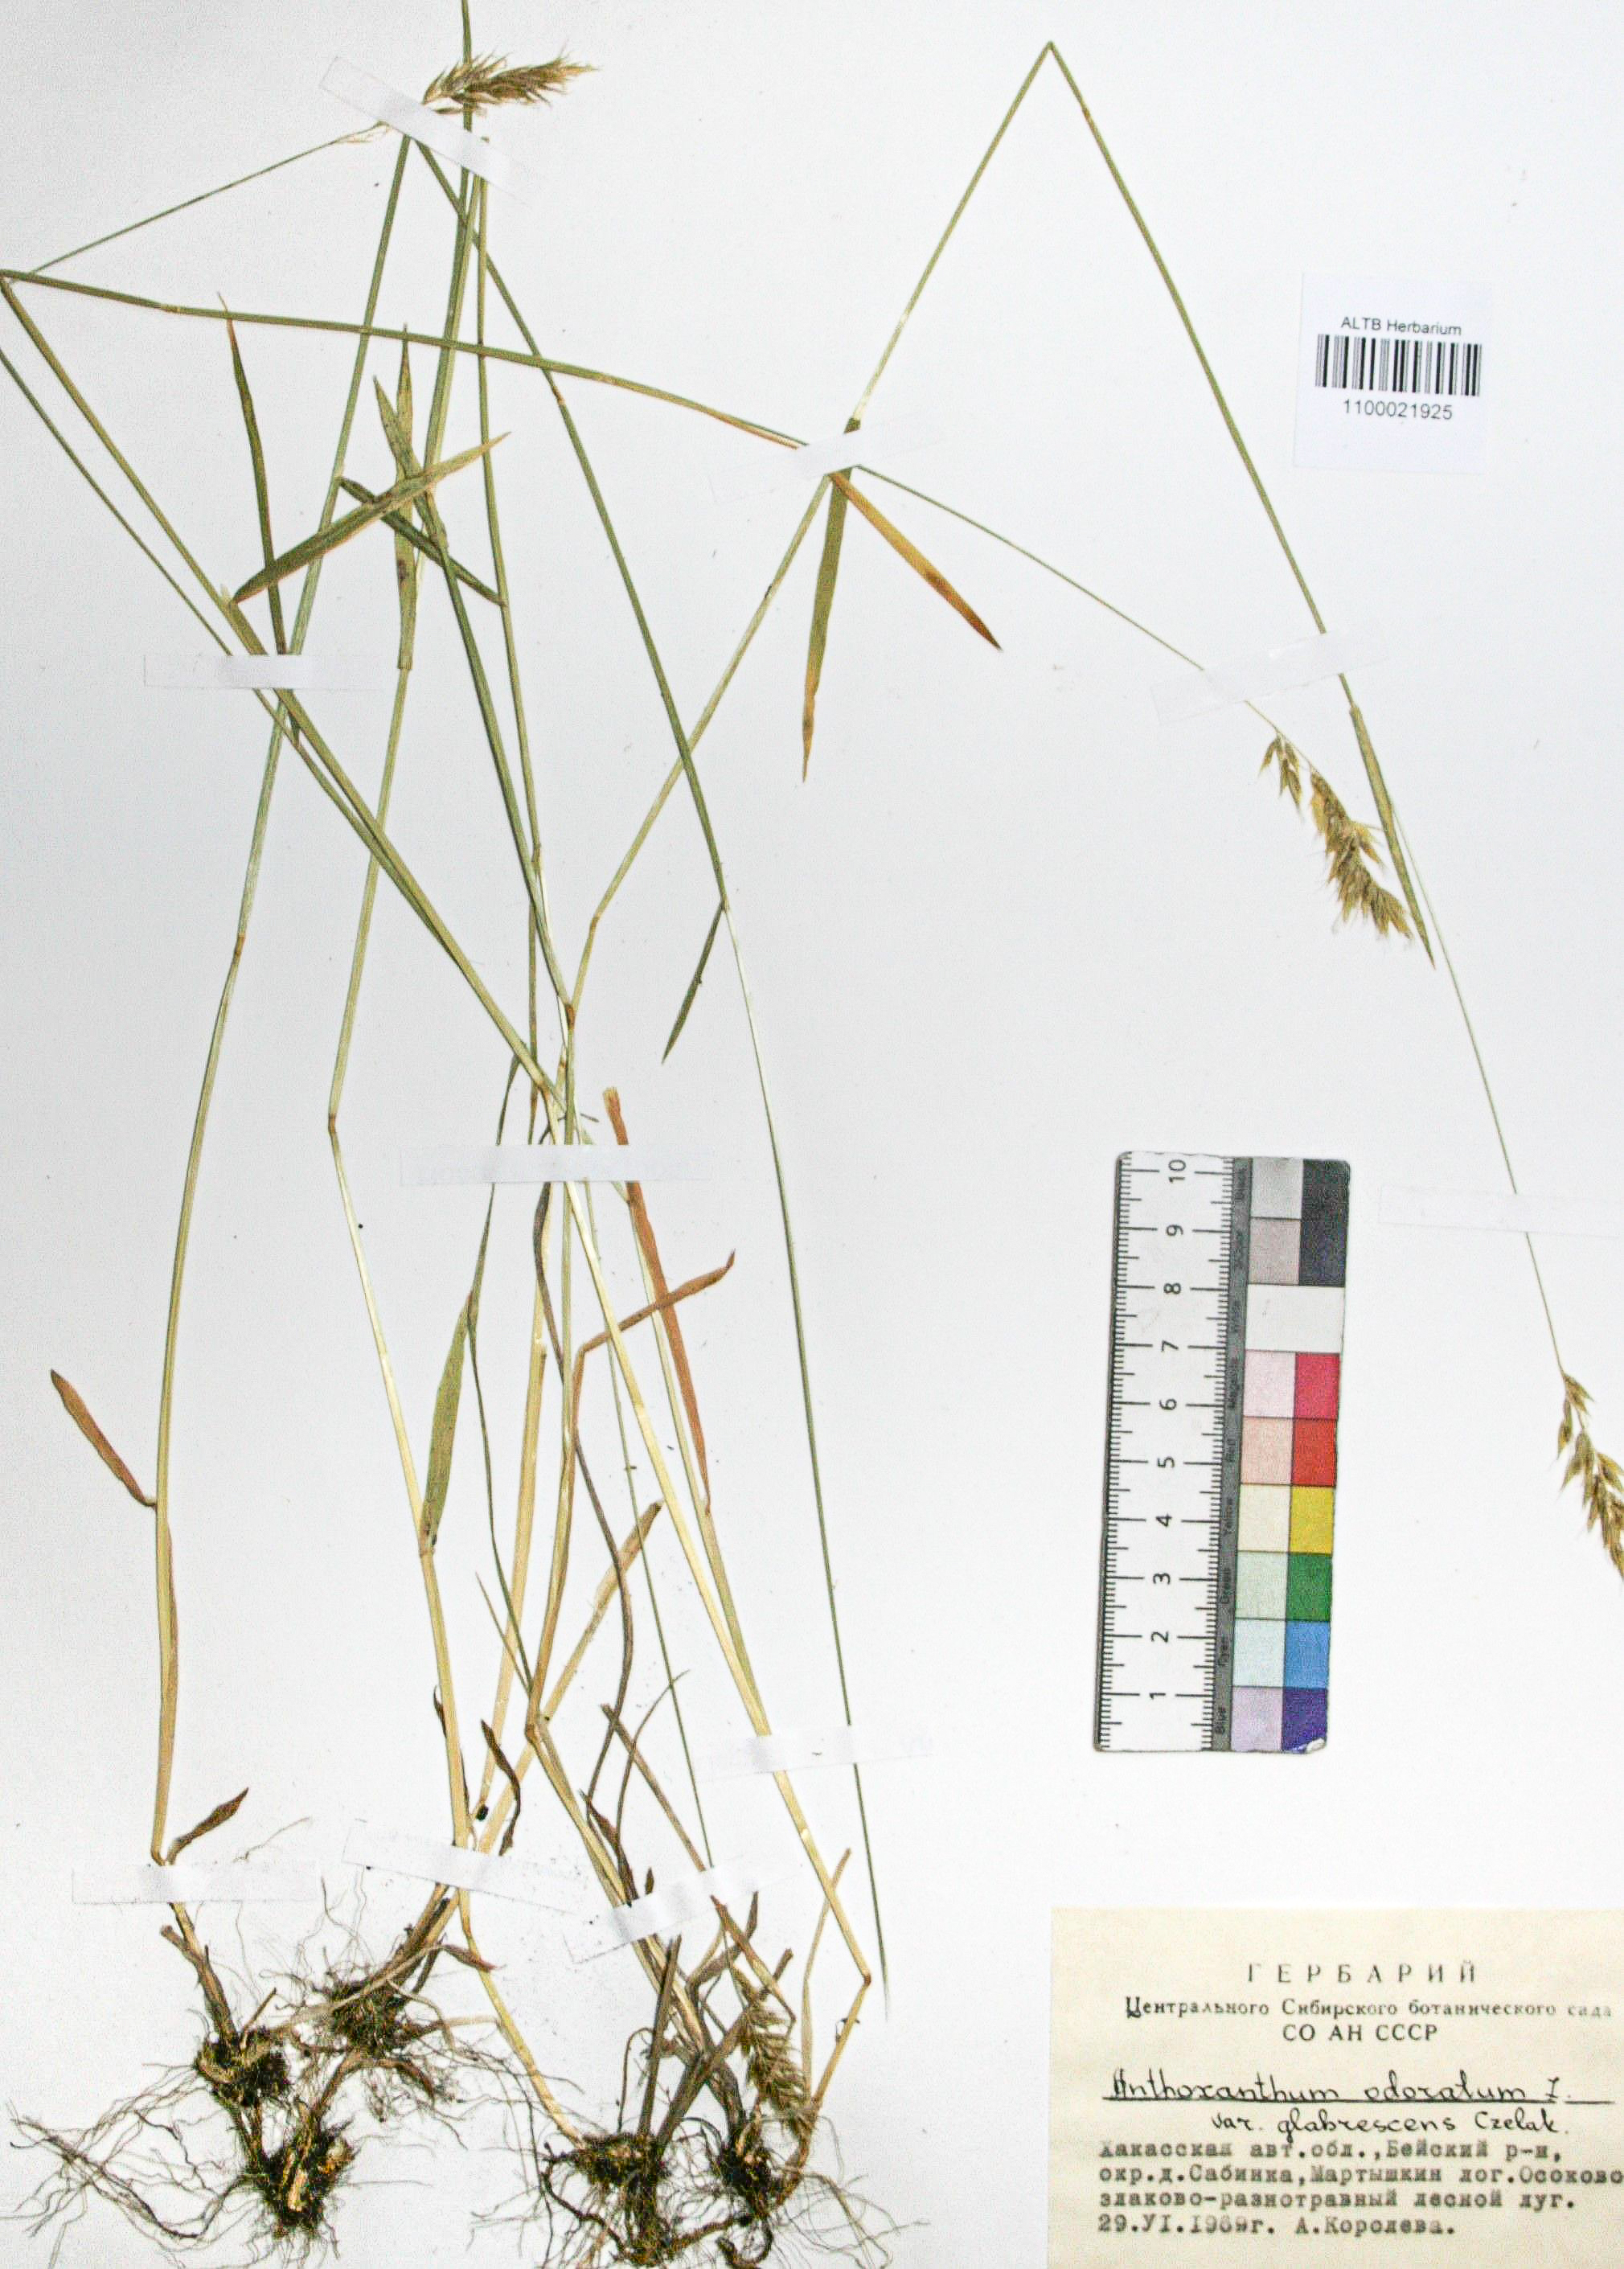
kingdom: Plantae
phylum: Tracheophyta
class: Liliopsida
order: Poales
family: Poaceae
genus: Anthoxanthum
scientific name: Anthoxanthum odoratum
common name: Sweet vernalgrass
